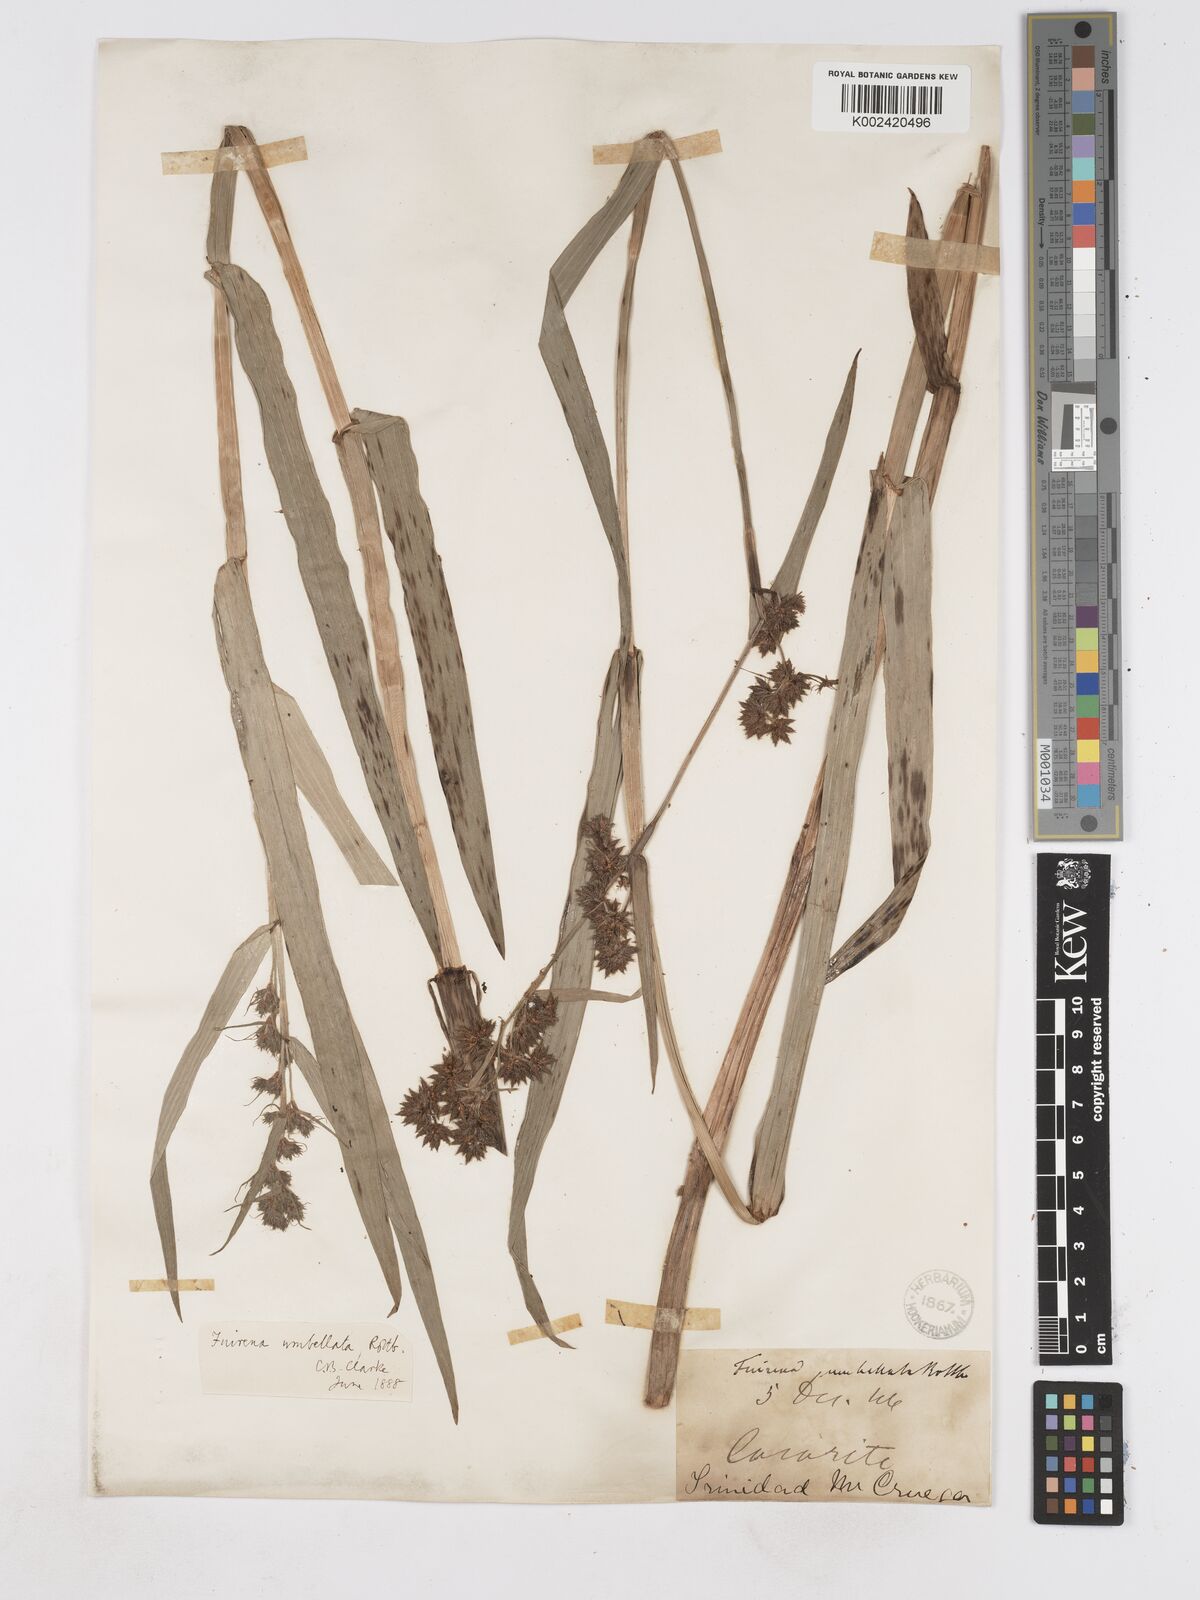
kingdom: Plantae
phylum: Tracheophyta
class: Liliopsida
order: Poales
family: Cyperaceae
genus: Fuirena
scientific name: Fuirena umbellata
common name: Yefen
